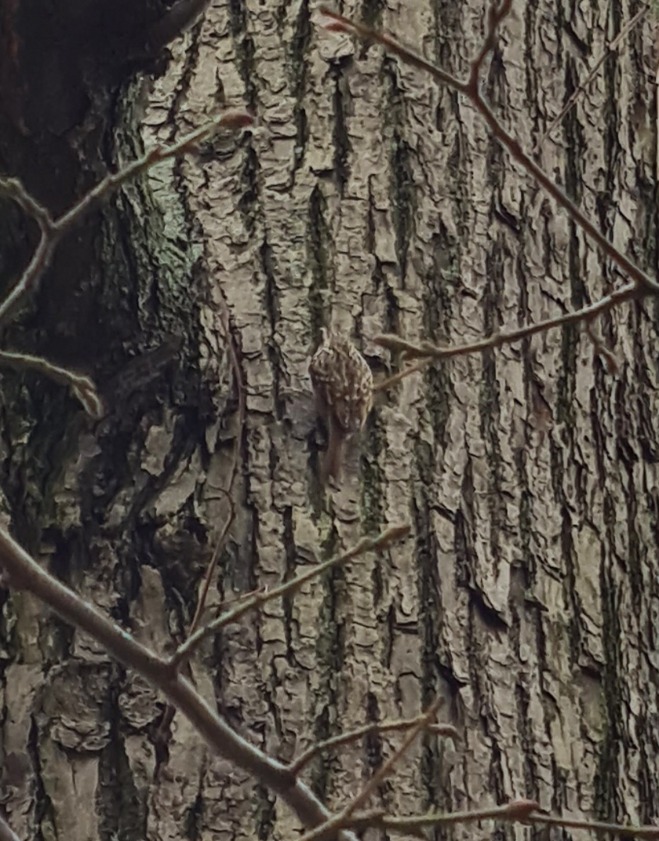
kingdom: Animalia
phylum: Chordata
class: Aves
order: Passeriformes
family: Certhiidae
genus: Certhia
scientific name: Certhia brachydactyla
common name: Korttået træløber
